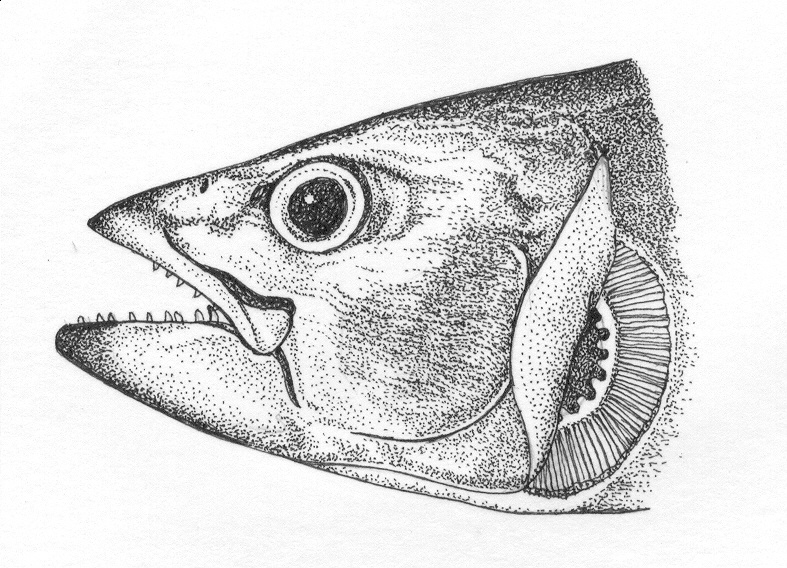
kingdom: Animalia
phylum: Chordata
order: Perciformes
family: Scombridae
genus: Gymnosarda
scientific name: Gymnosarda unicolor
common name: Dogtooth tuna
